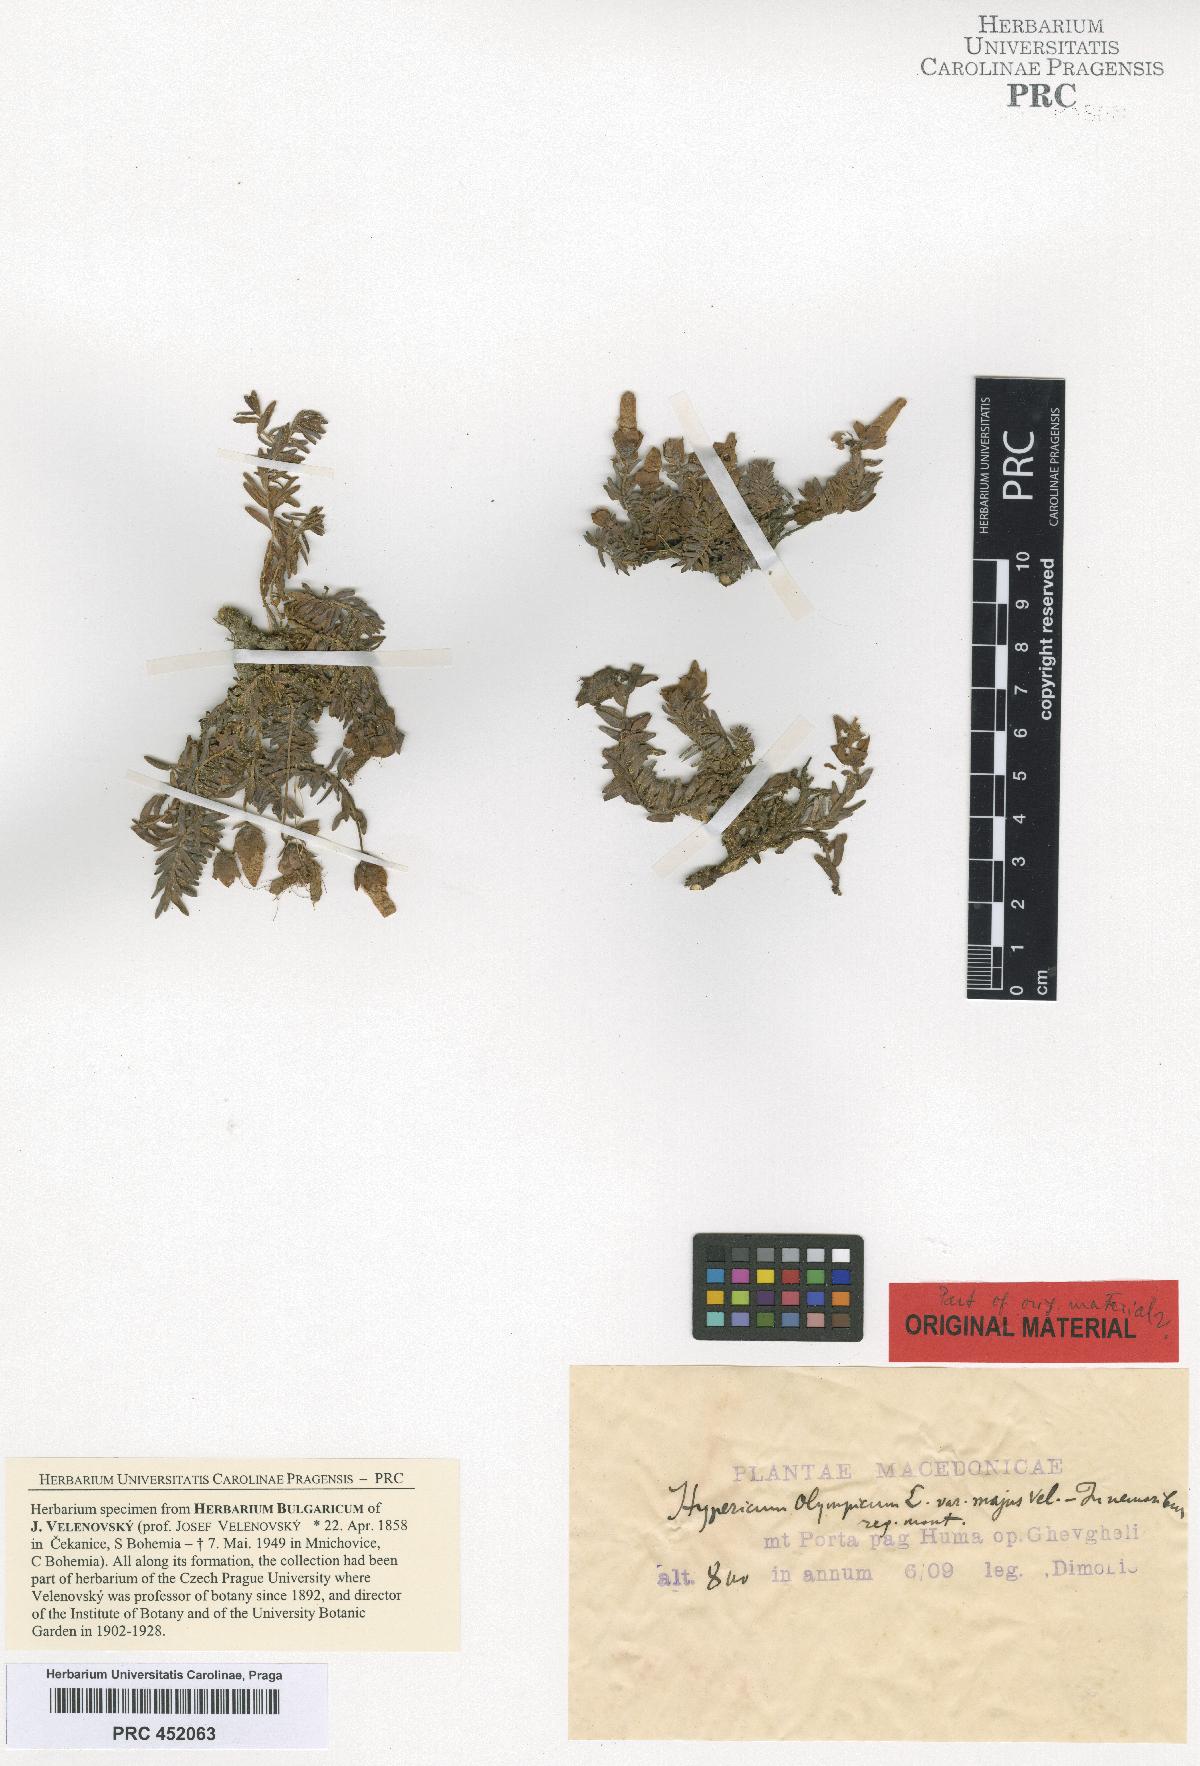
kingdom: Plantae
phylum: Tracheophyta
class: Magnoliopsida
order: Malpighiales
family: Hypericaceae
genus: Hypericum
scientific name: Hypericum olympicum
